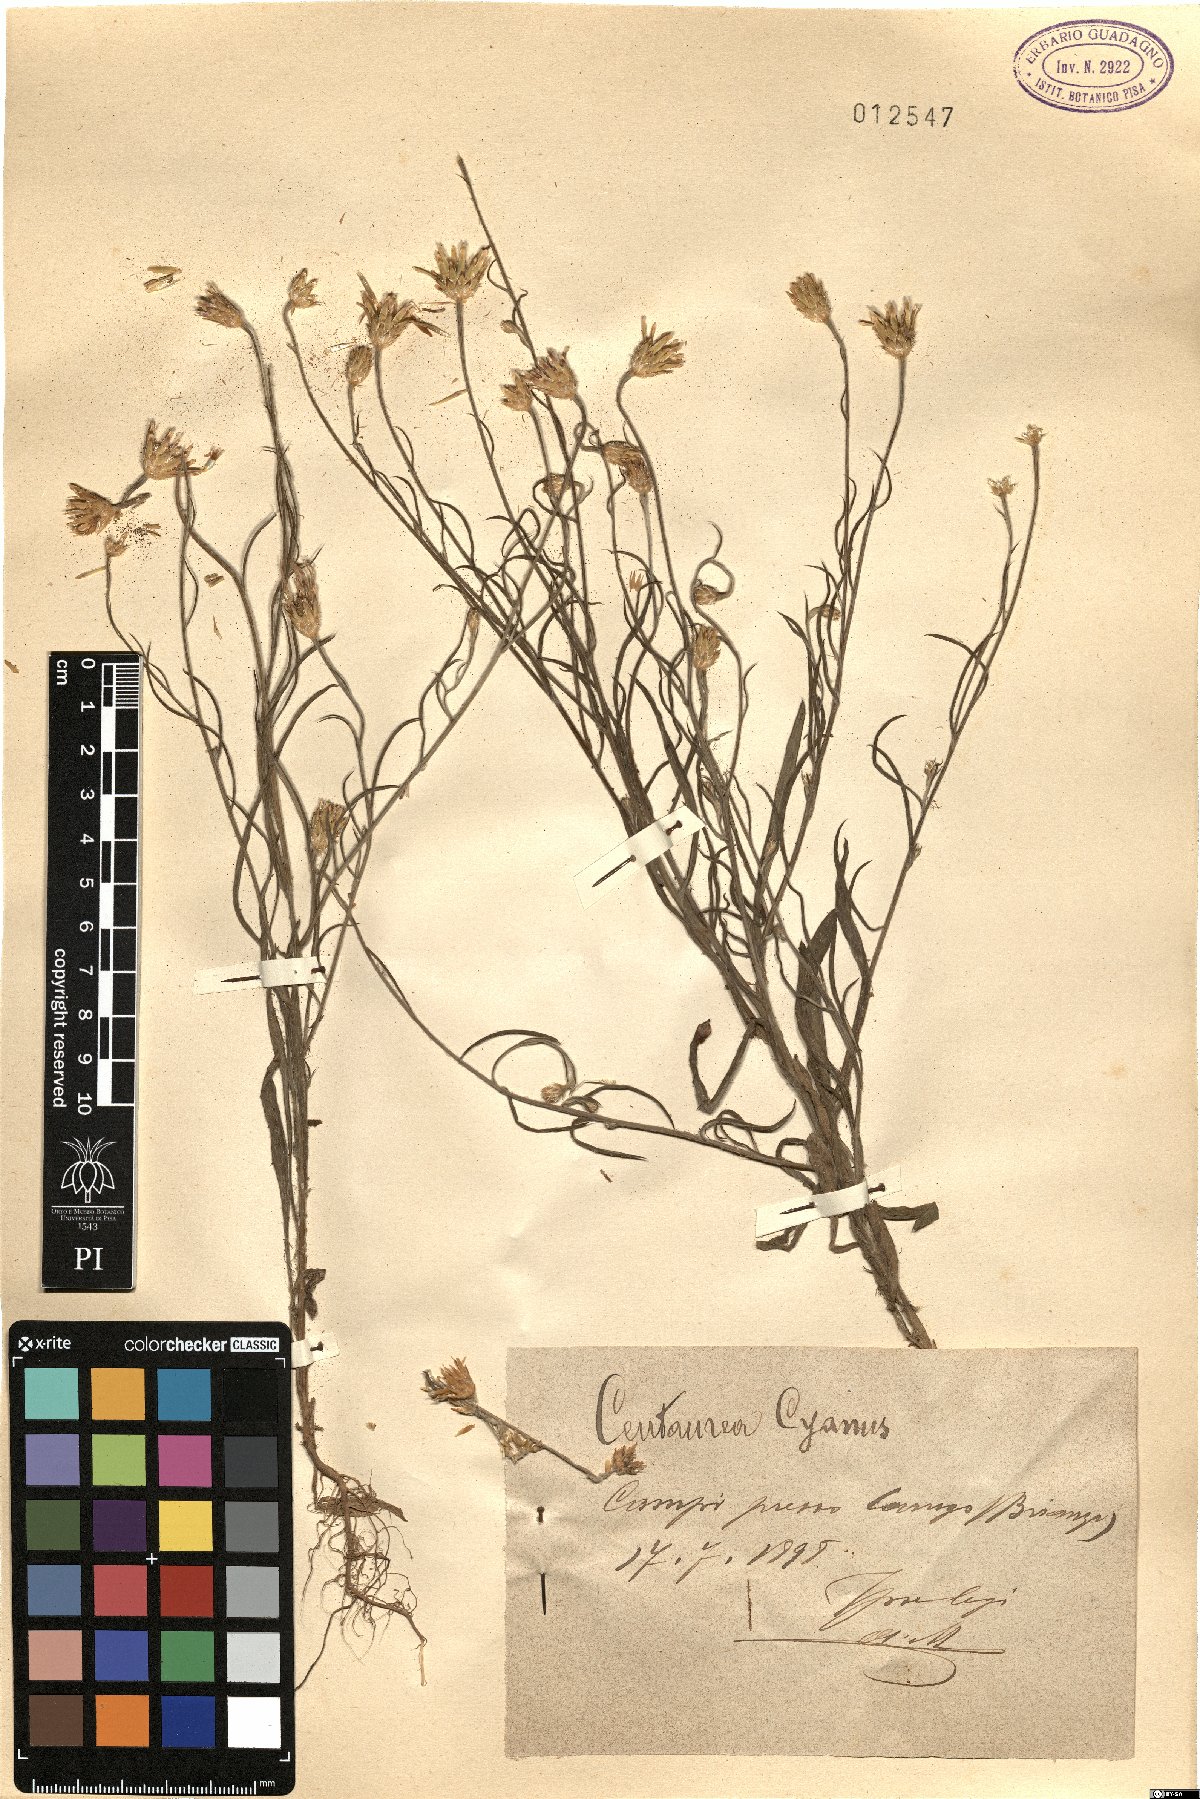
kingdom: Plantae
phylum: Tracheophyta
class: Magnoliopsida
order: Asterales
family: Asteraceae
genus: Centaurea
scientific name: Centaurea cyanus
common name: Cornflower
